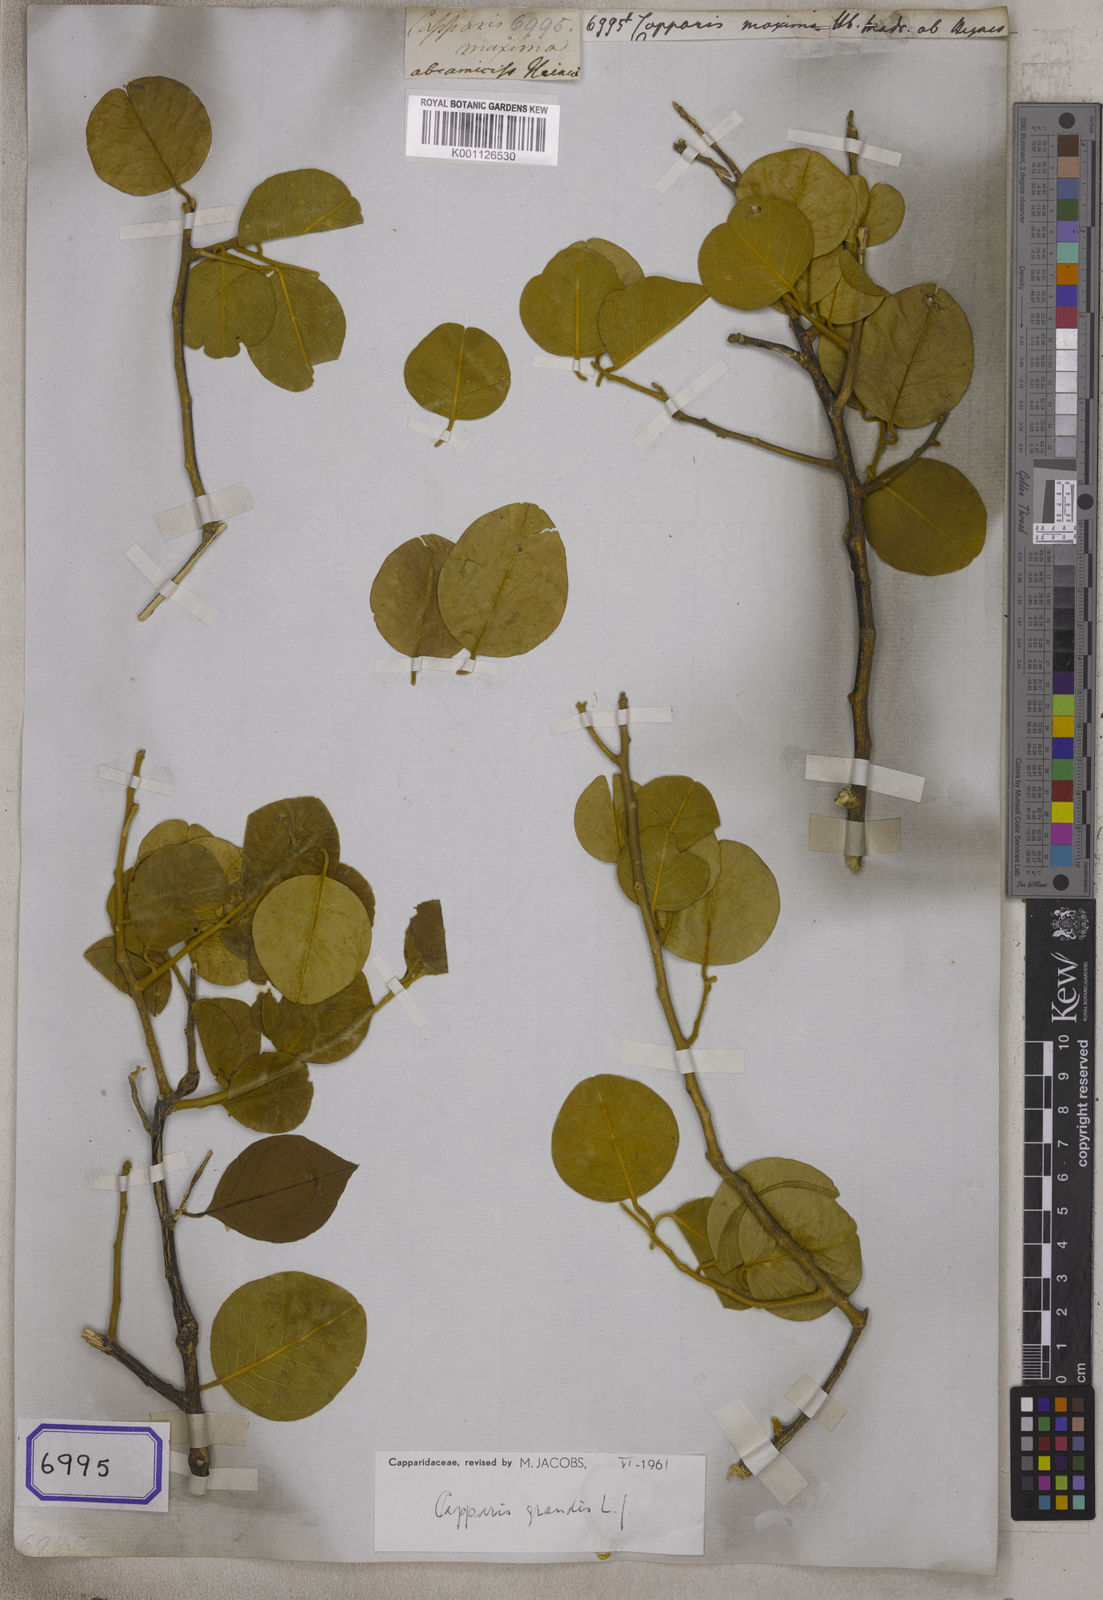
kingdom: Plantae
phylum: Tracheophyta
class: Magnoliopsida
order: Brassicales
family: Capparaceae
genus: Capparis
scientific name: Capparis grandis
